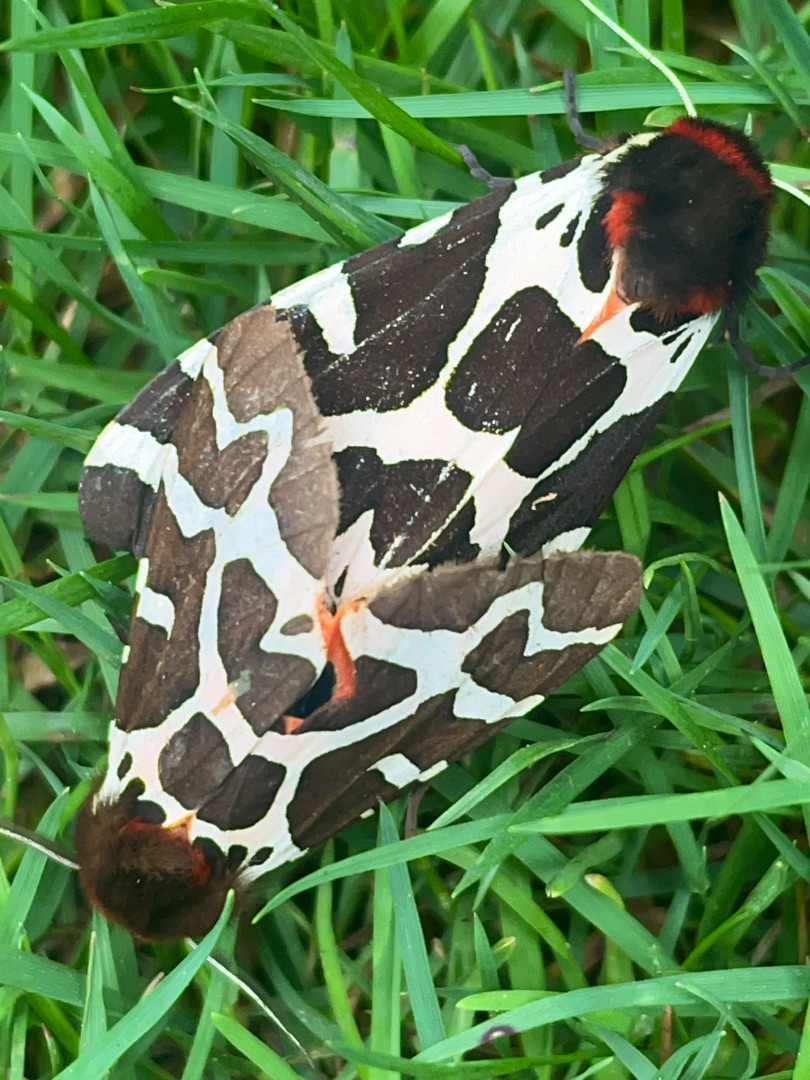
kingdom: Animalia
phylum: Arthropoda
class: Insecta
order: Lepidoptera
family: Erebidae
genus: Arctia
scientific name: Arctia caja
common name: Brun bjørn
